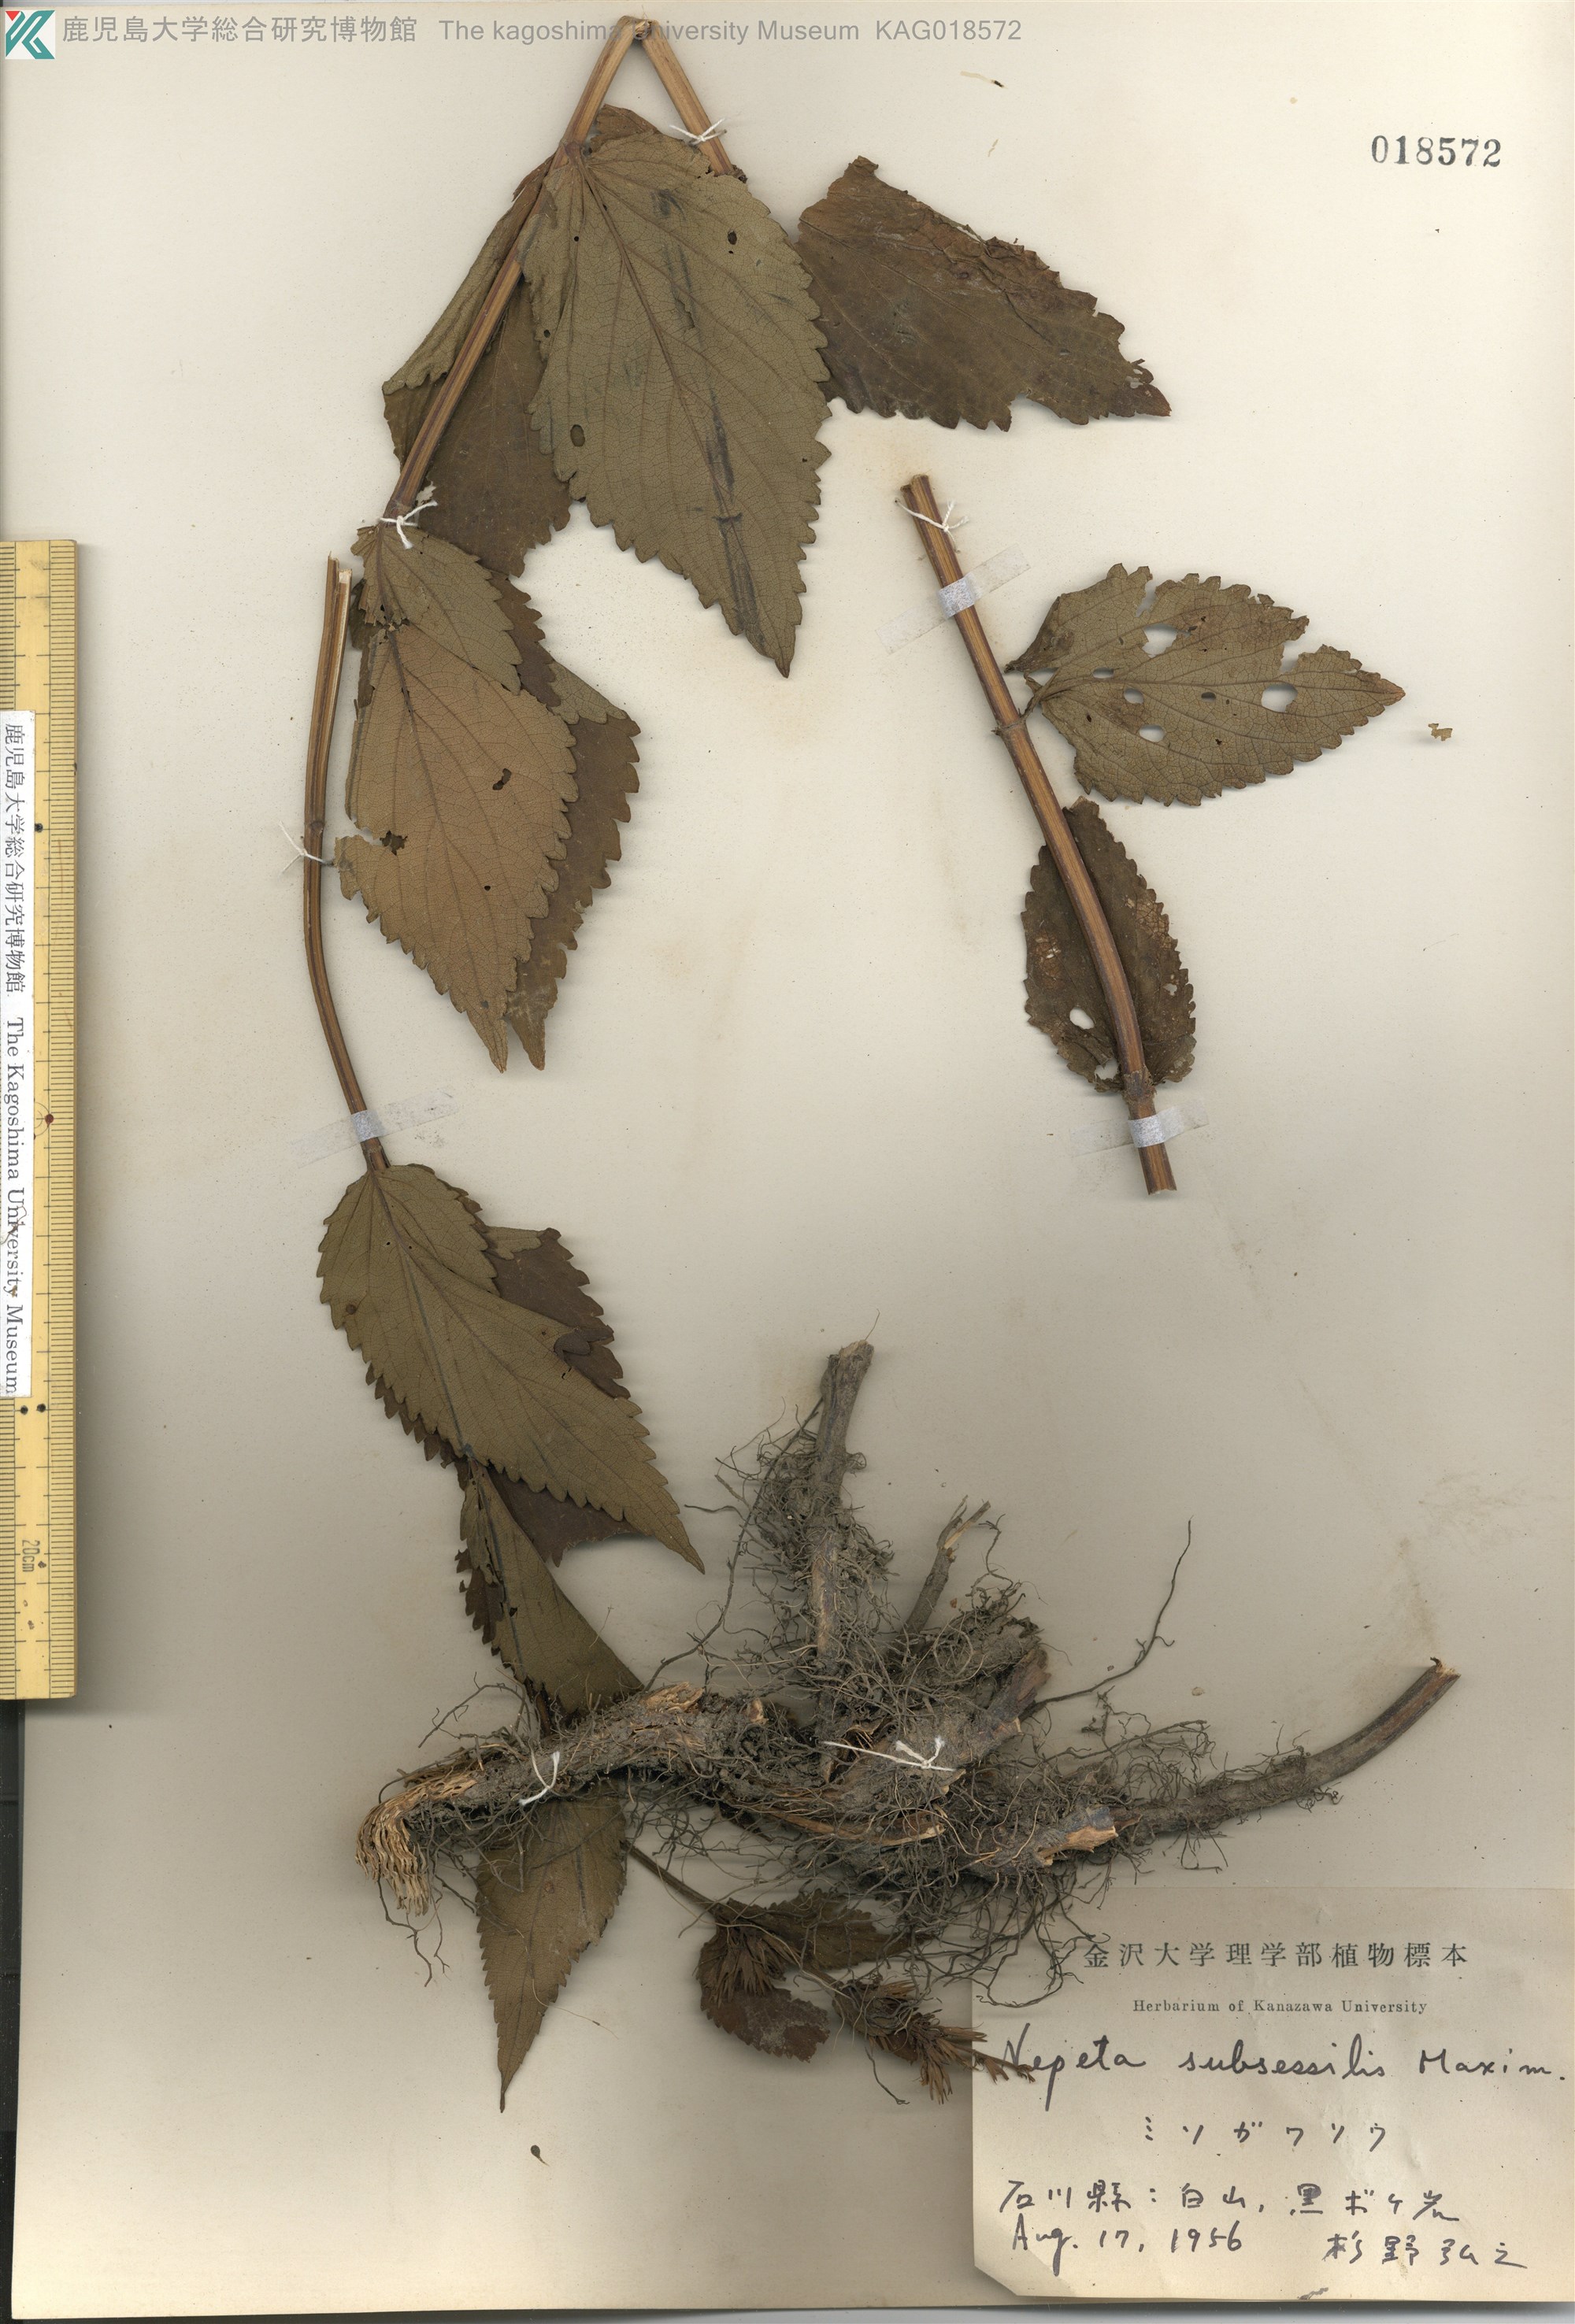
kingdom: Plantae
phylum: Tracheophyta
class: Magnoliopsida
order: Lamiales
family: Lamiaceae
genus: Nepeta
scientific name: Nepeta subsessilis
